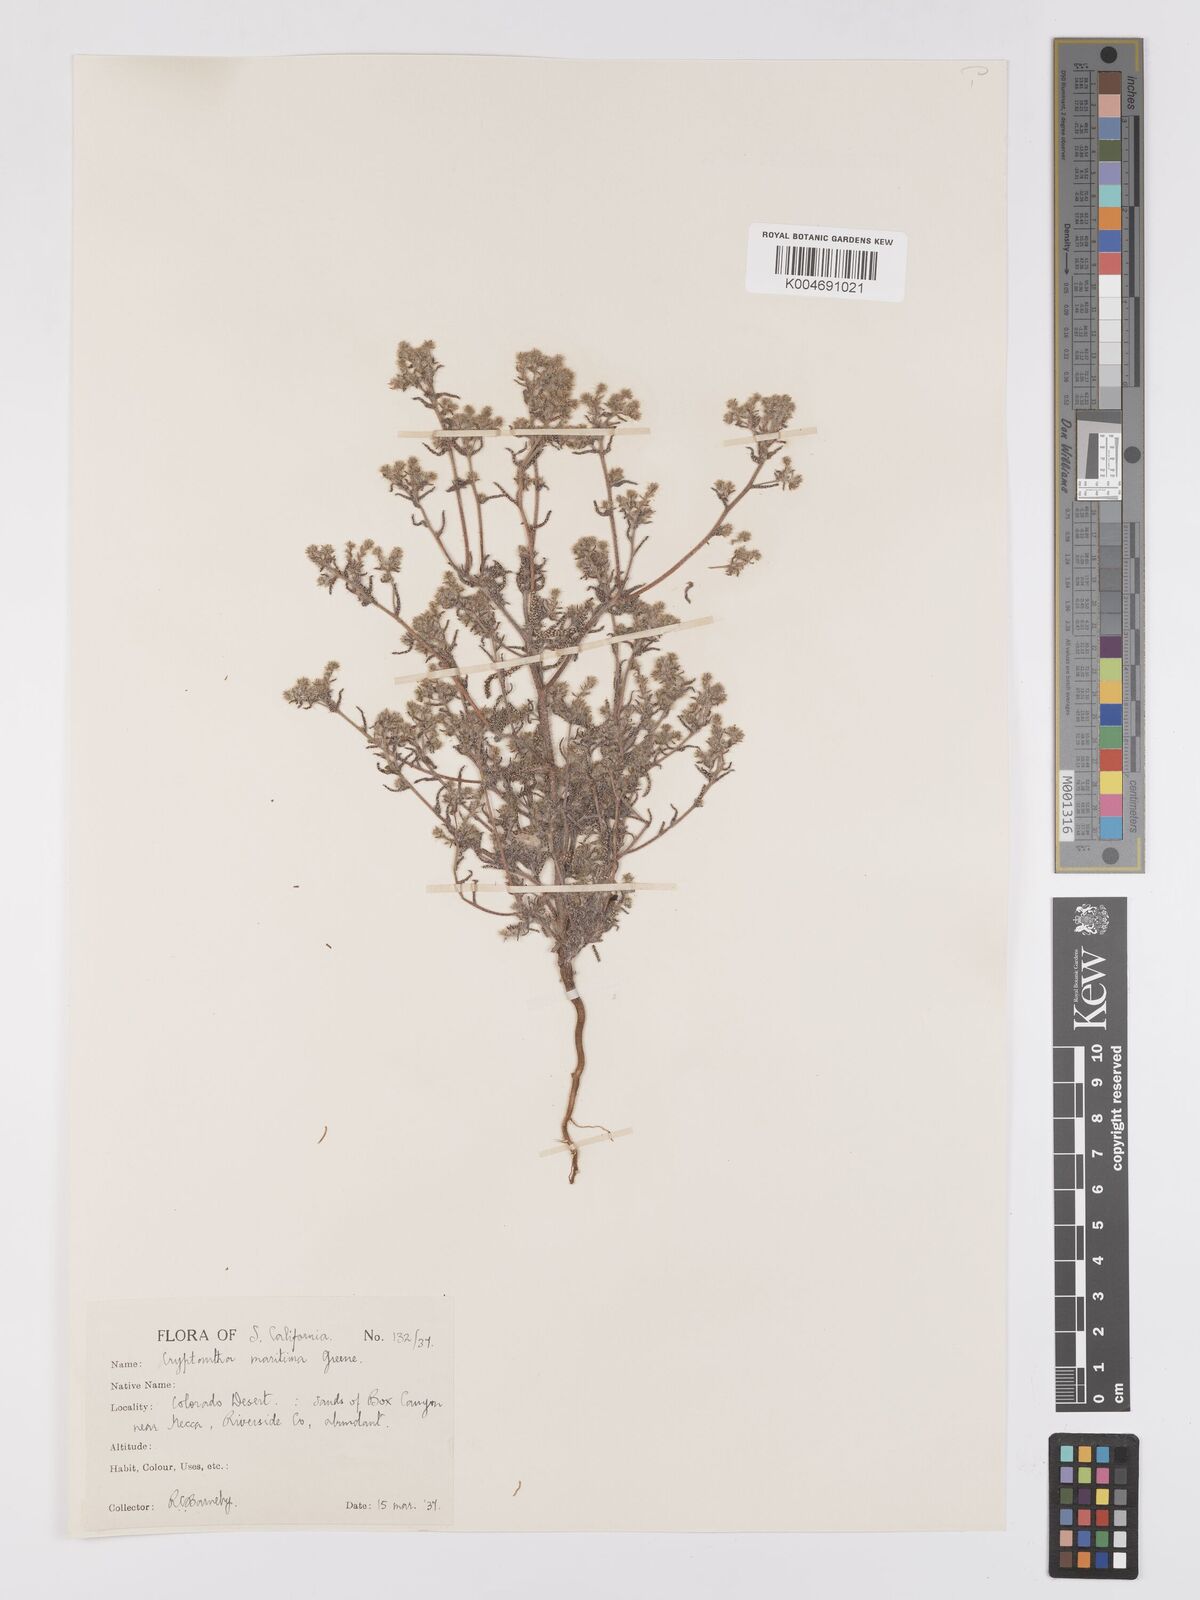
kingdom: Plantae
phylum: Tracheophyta
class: Magnoliopsida
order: Boraginales
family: Boraginaceae
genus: Cryptantha
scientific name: Cryptantha maritima
